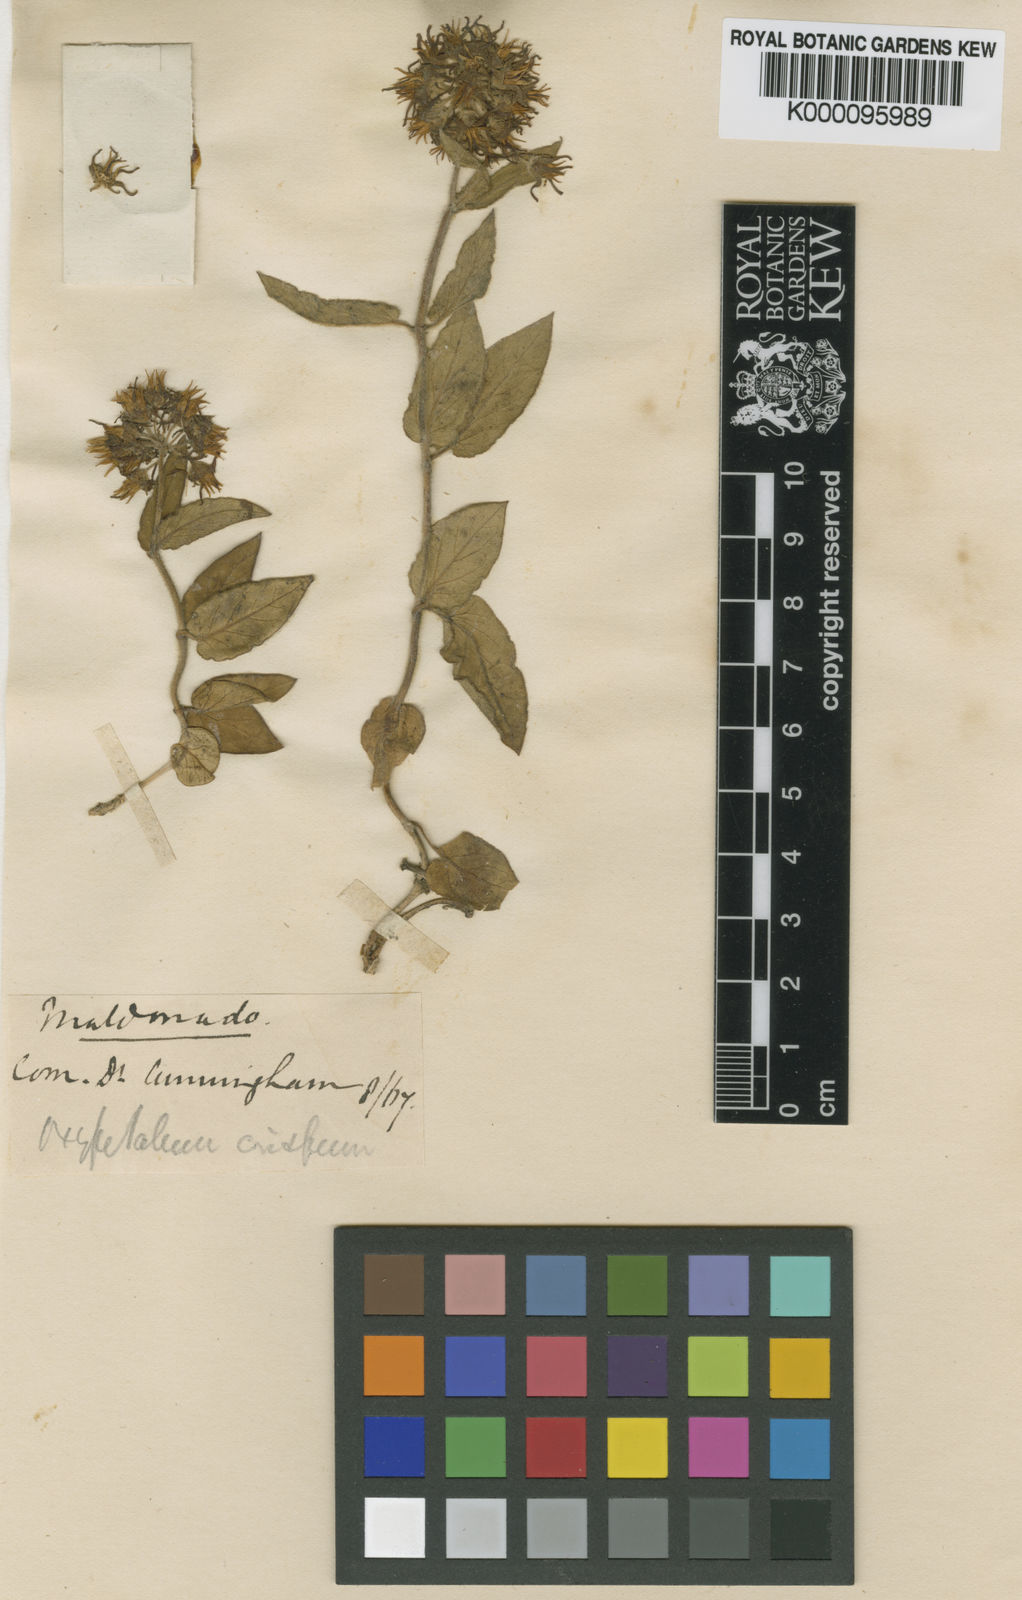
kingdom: Plantae
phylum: Tracheophyta
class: Magnoliopsida
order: Gentianales
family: Apocynaceae
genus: Oxypetalum
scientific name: Oxypetalum crispum
